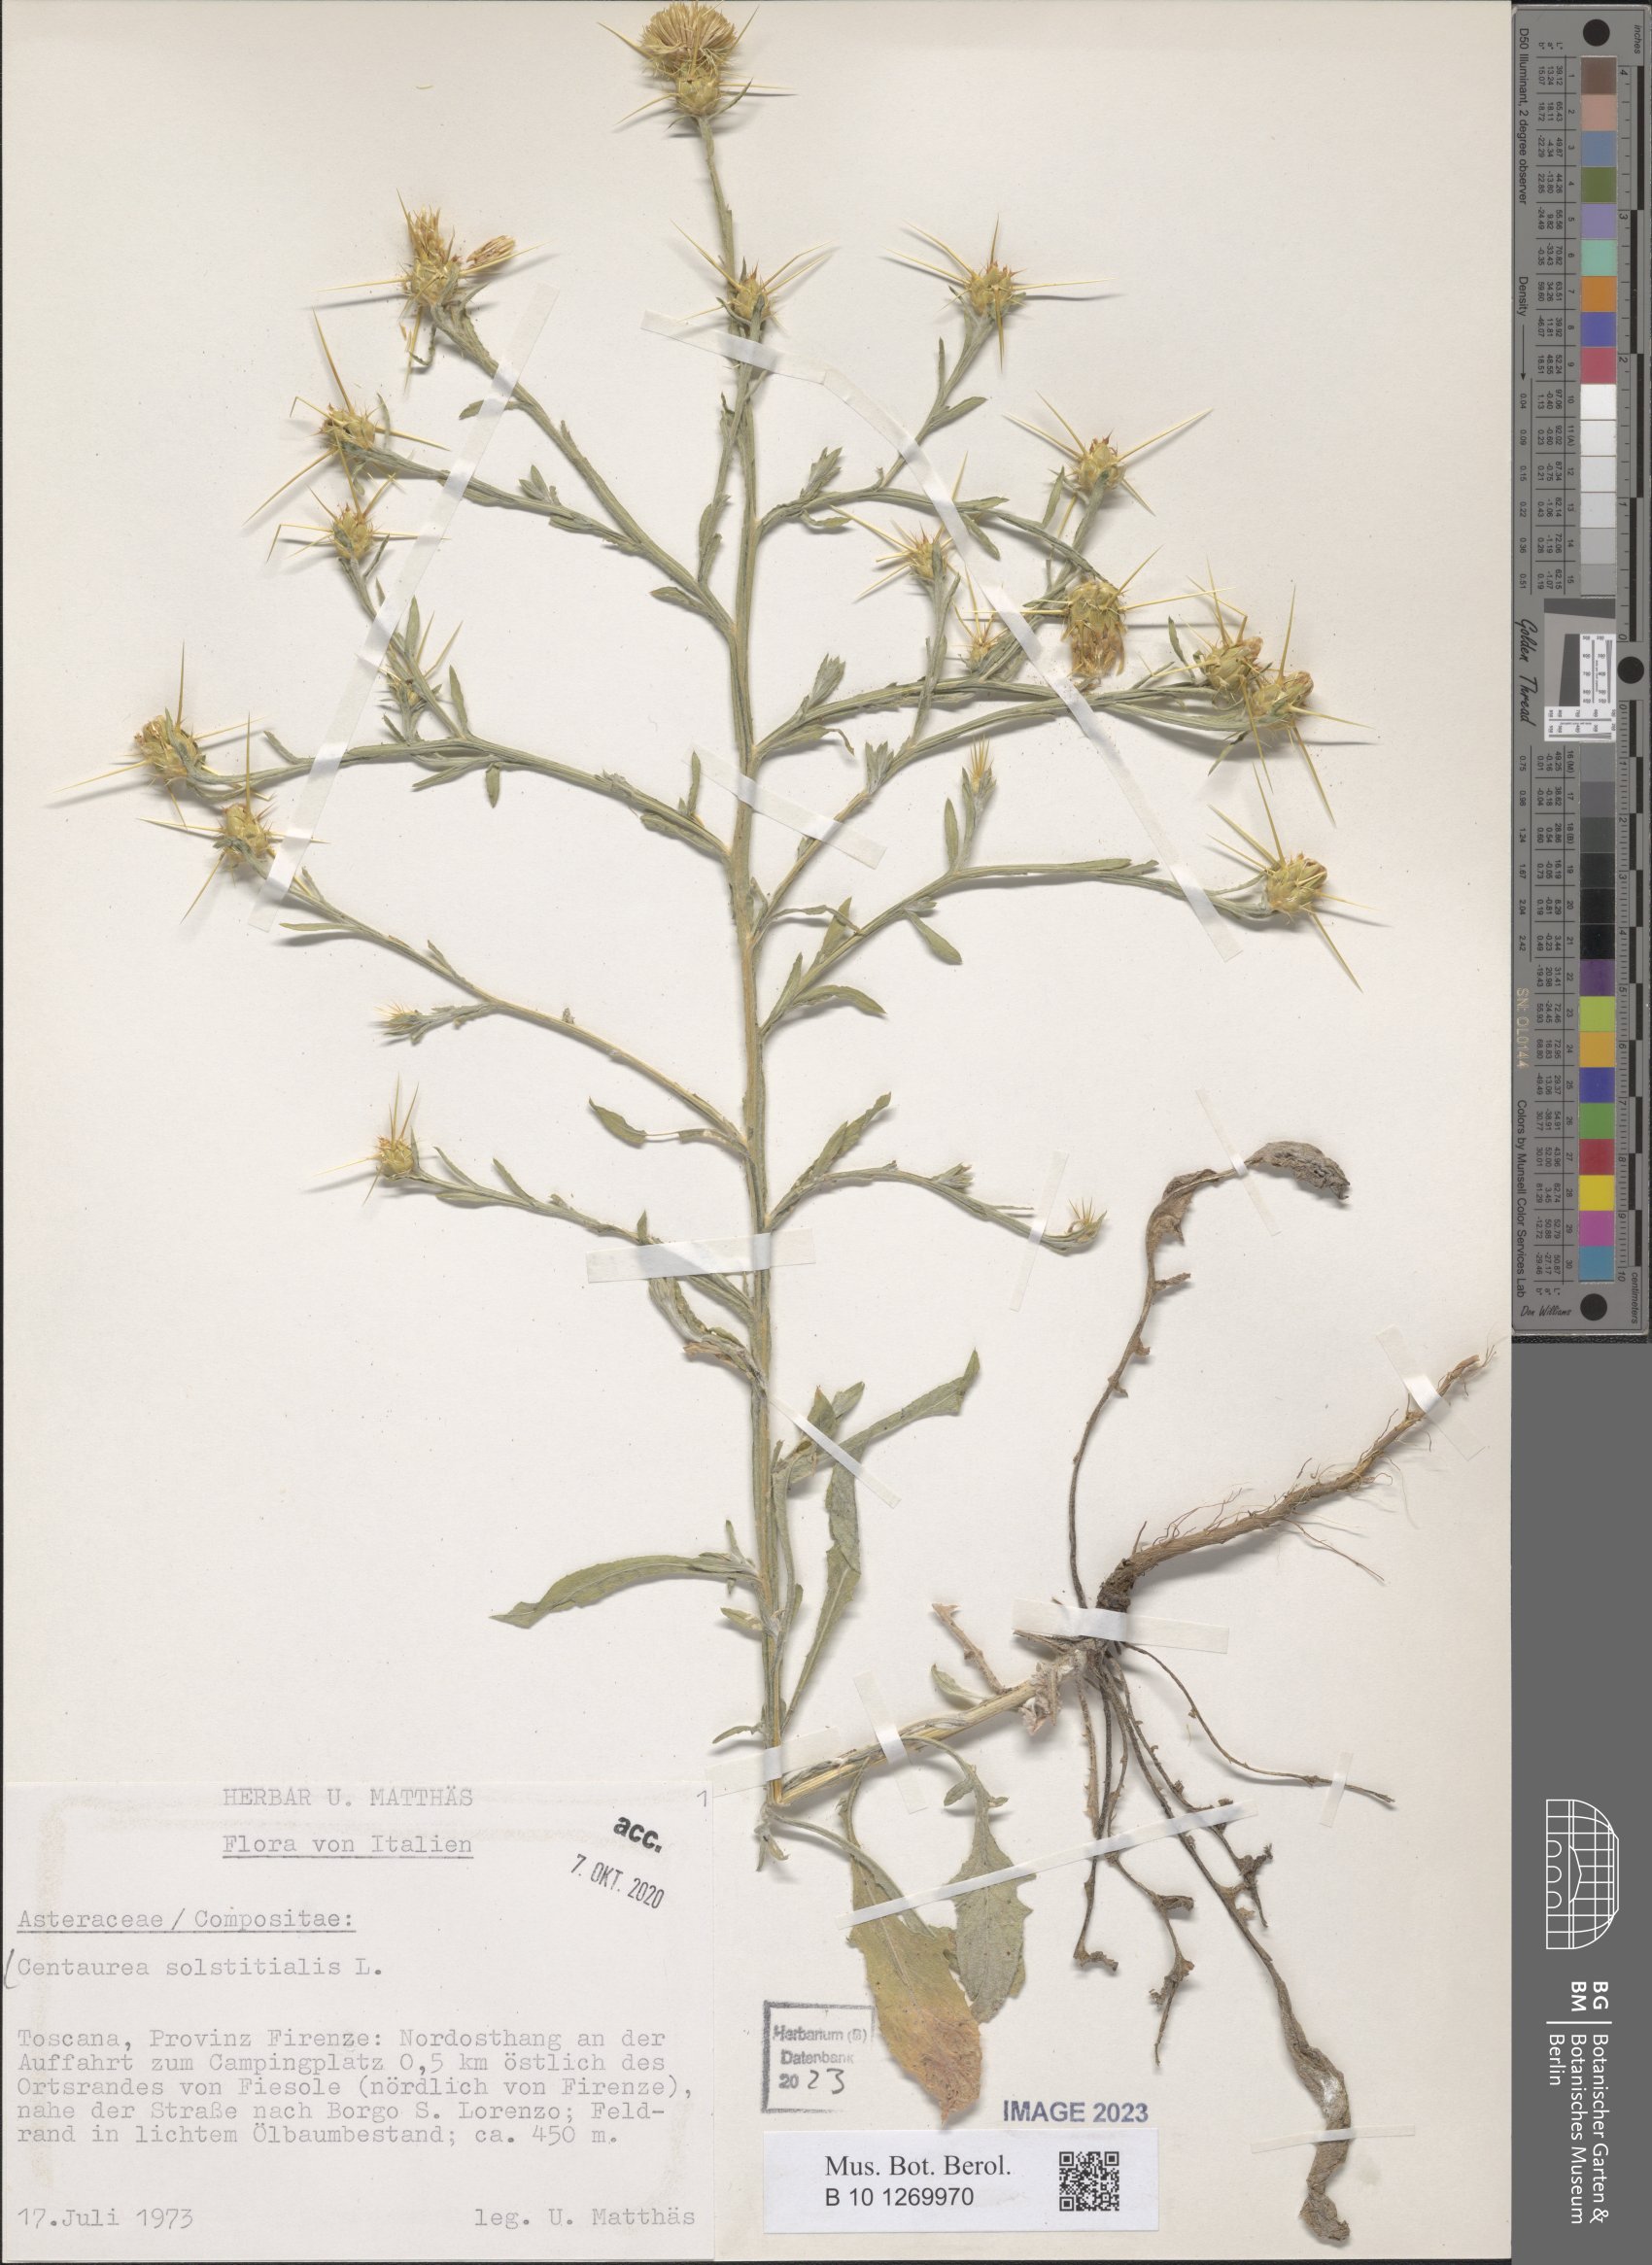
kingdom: Plantae
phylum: Tracheophyta
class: Magnoliopsida
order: Asterales
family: Asteraceae
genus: Centaurea
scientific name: Centaurea solstitialis
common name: Yellow star-thistle
